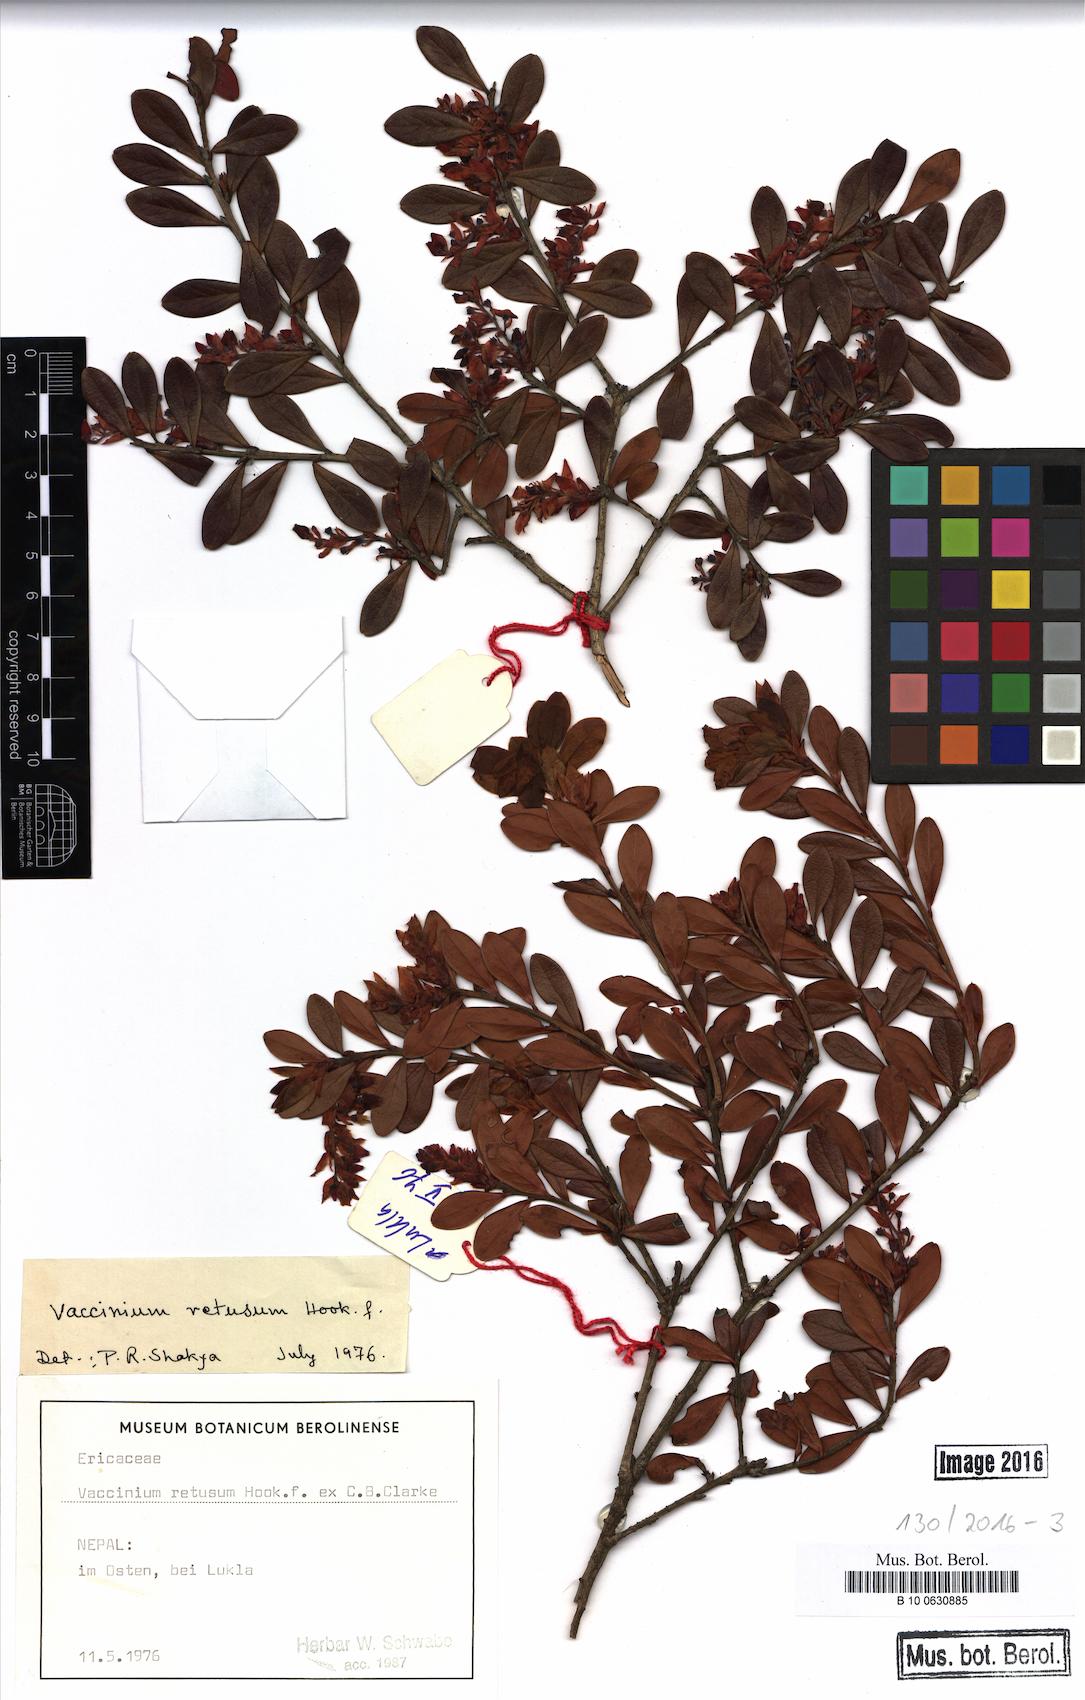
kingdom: Plantae
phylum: Tracheophyta
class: Magnoliopsida
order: Ericales
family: Ericaceae
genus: Vaccinium
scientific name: Vaccinium retusum
